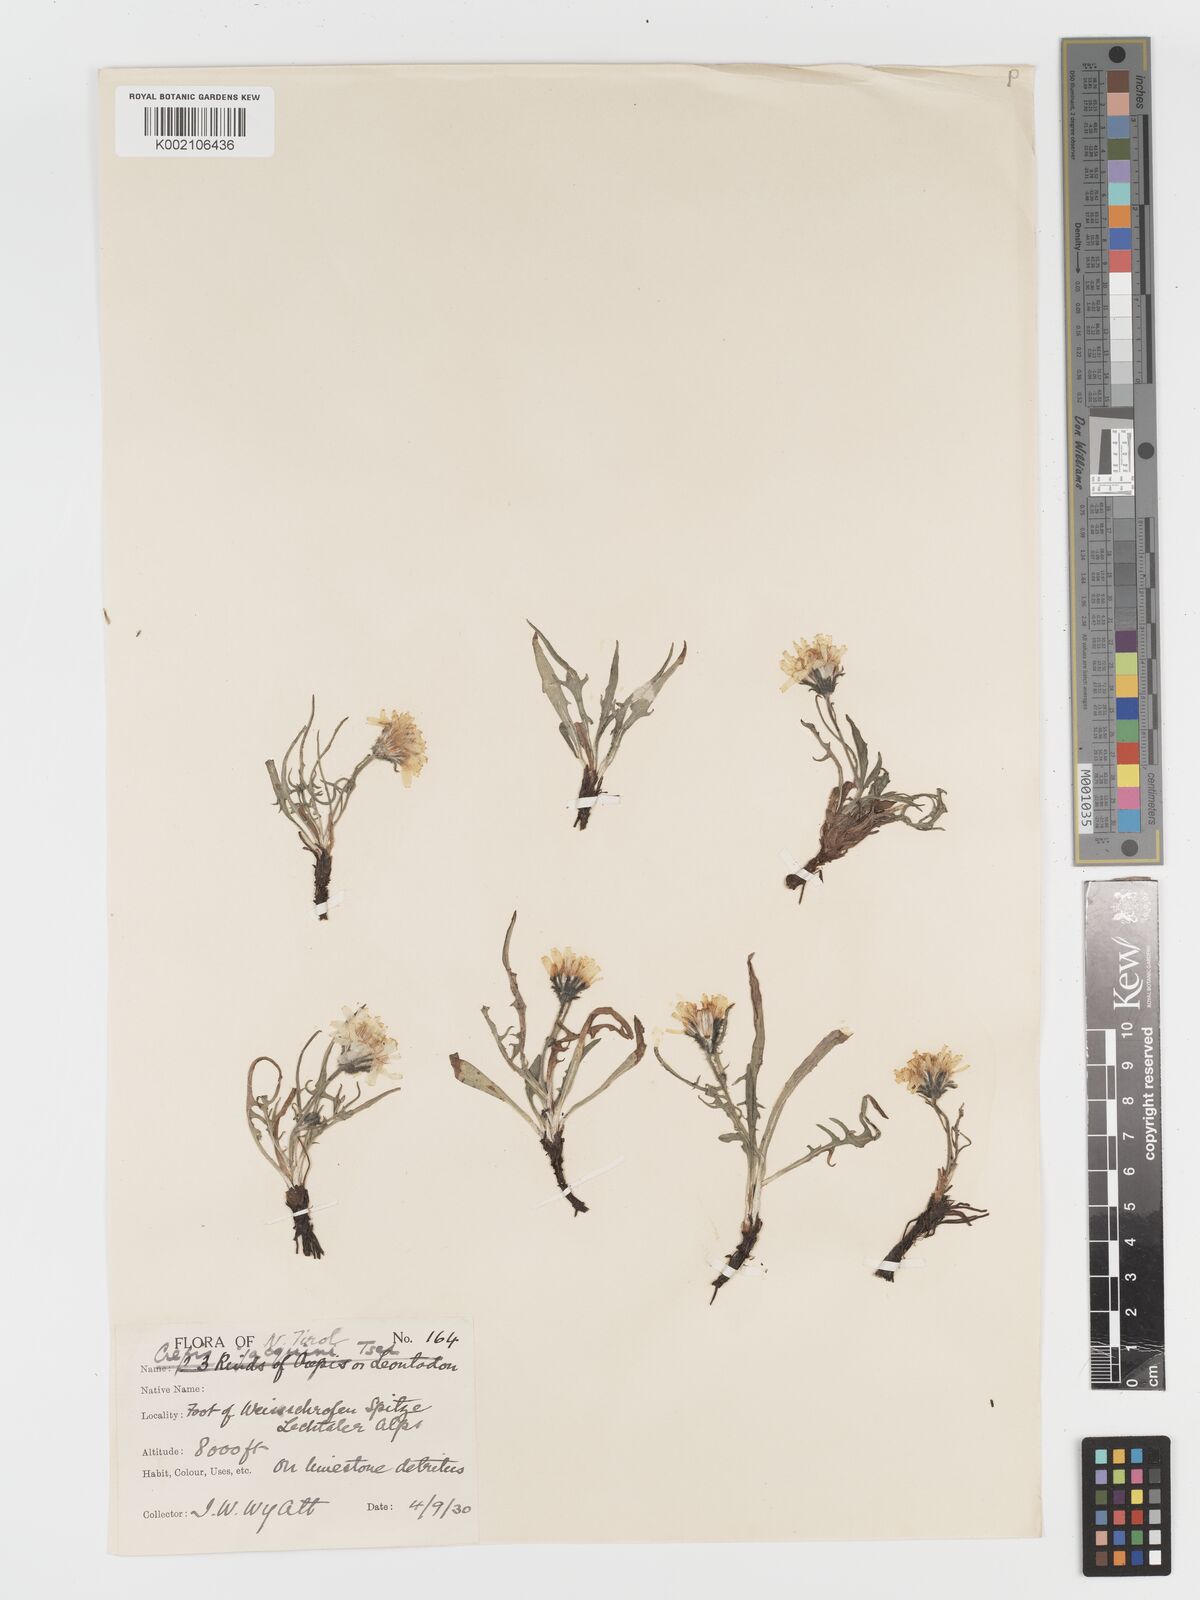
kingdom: Plantae
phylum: Tracheophyta
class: Magnoliopsida
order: Asterales
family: Asteraceae
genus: Crepis
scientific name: Crepis jacquinii
